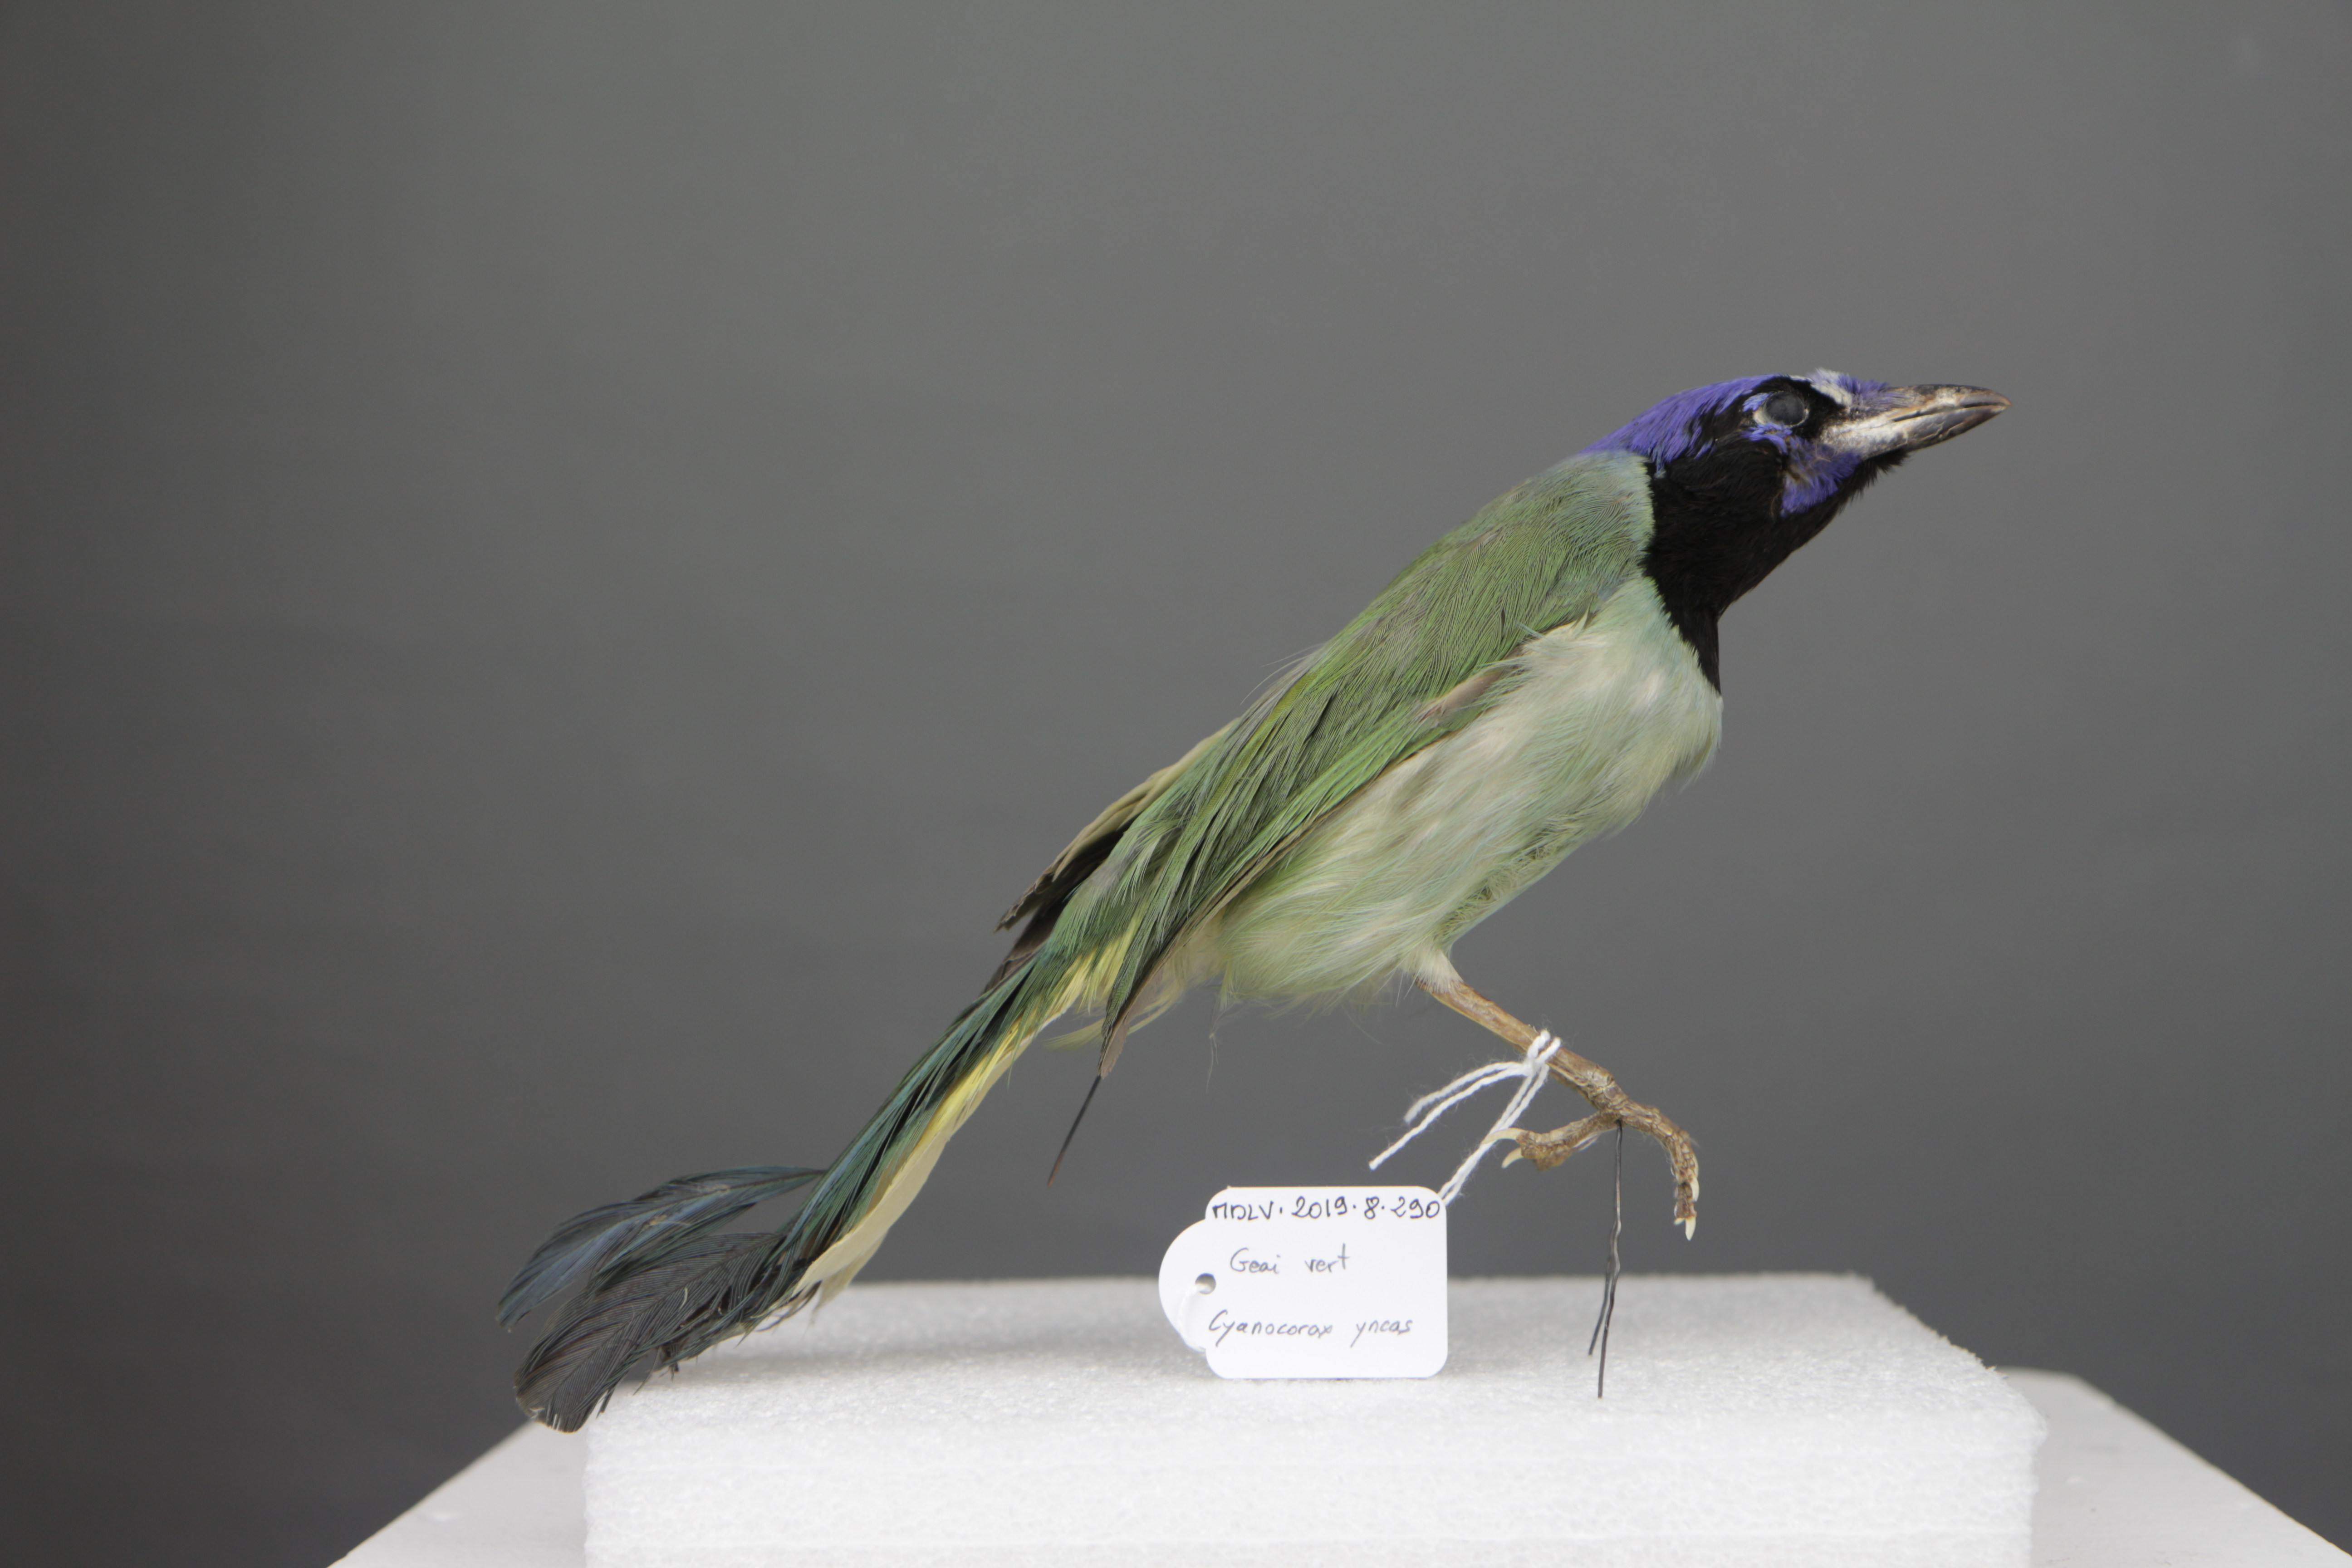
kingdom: Animalia
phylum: Chordata
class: Aves
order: Passeriformes
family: Corvidae
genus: Cyanocorax
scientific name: Cyanocorax yncas
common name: Green jay
